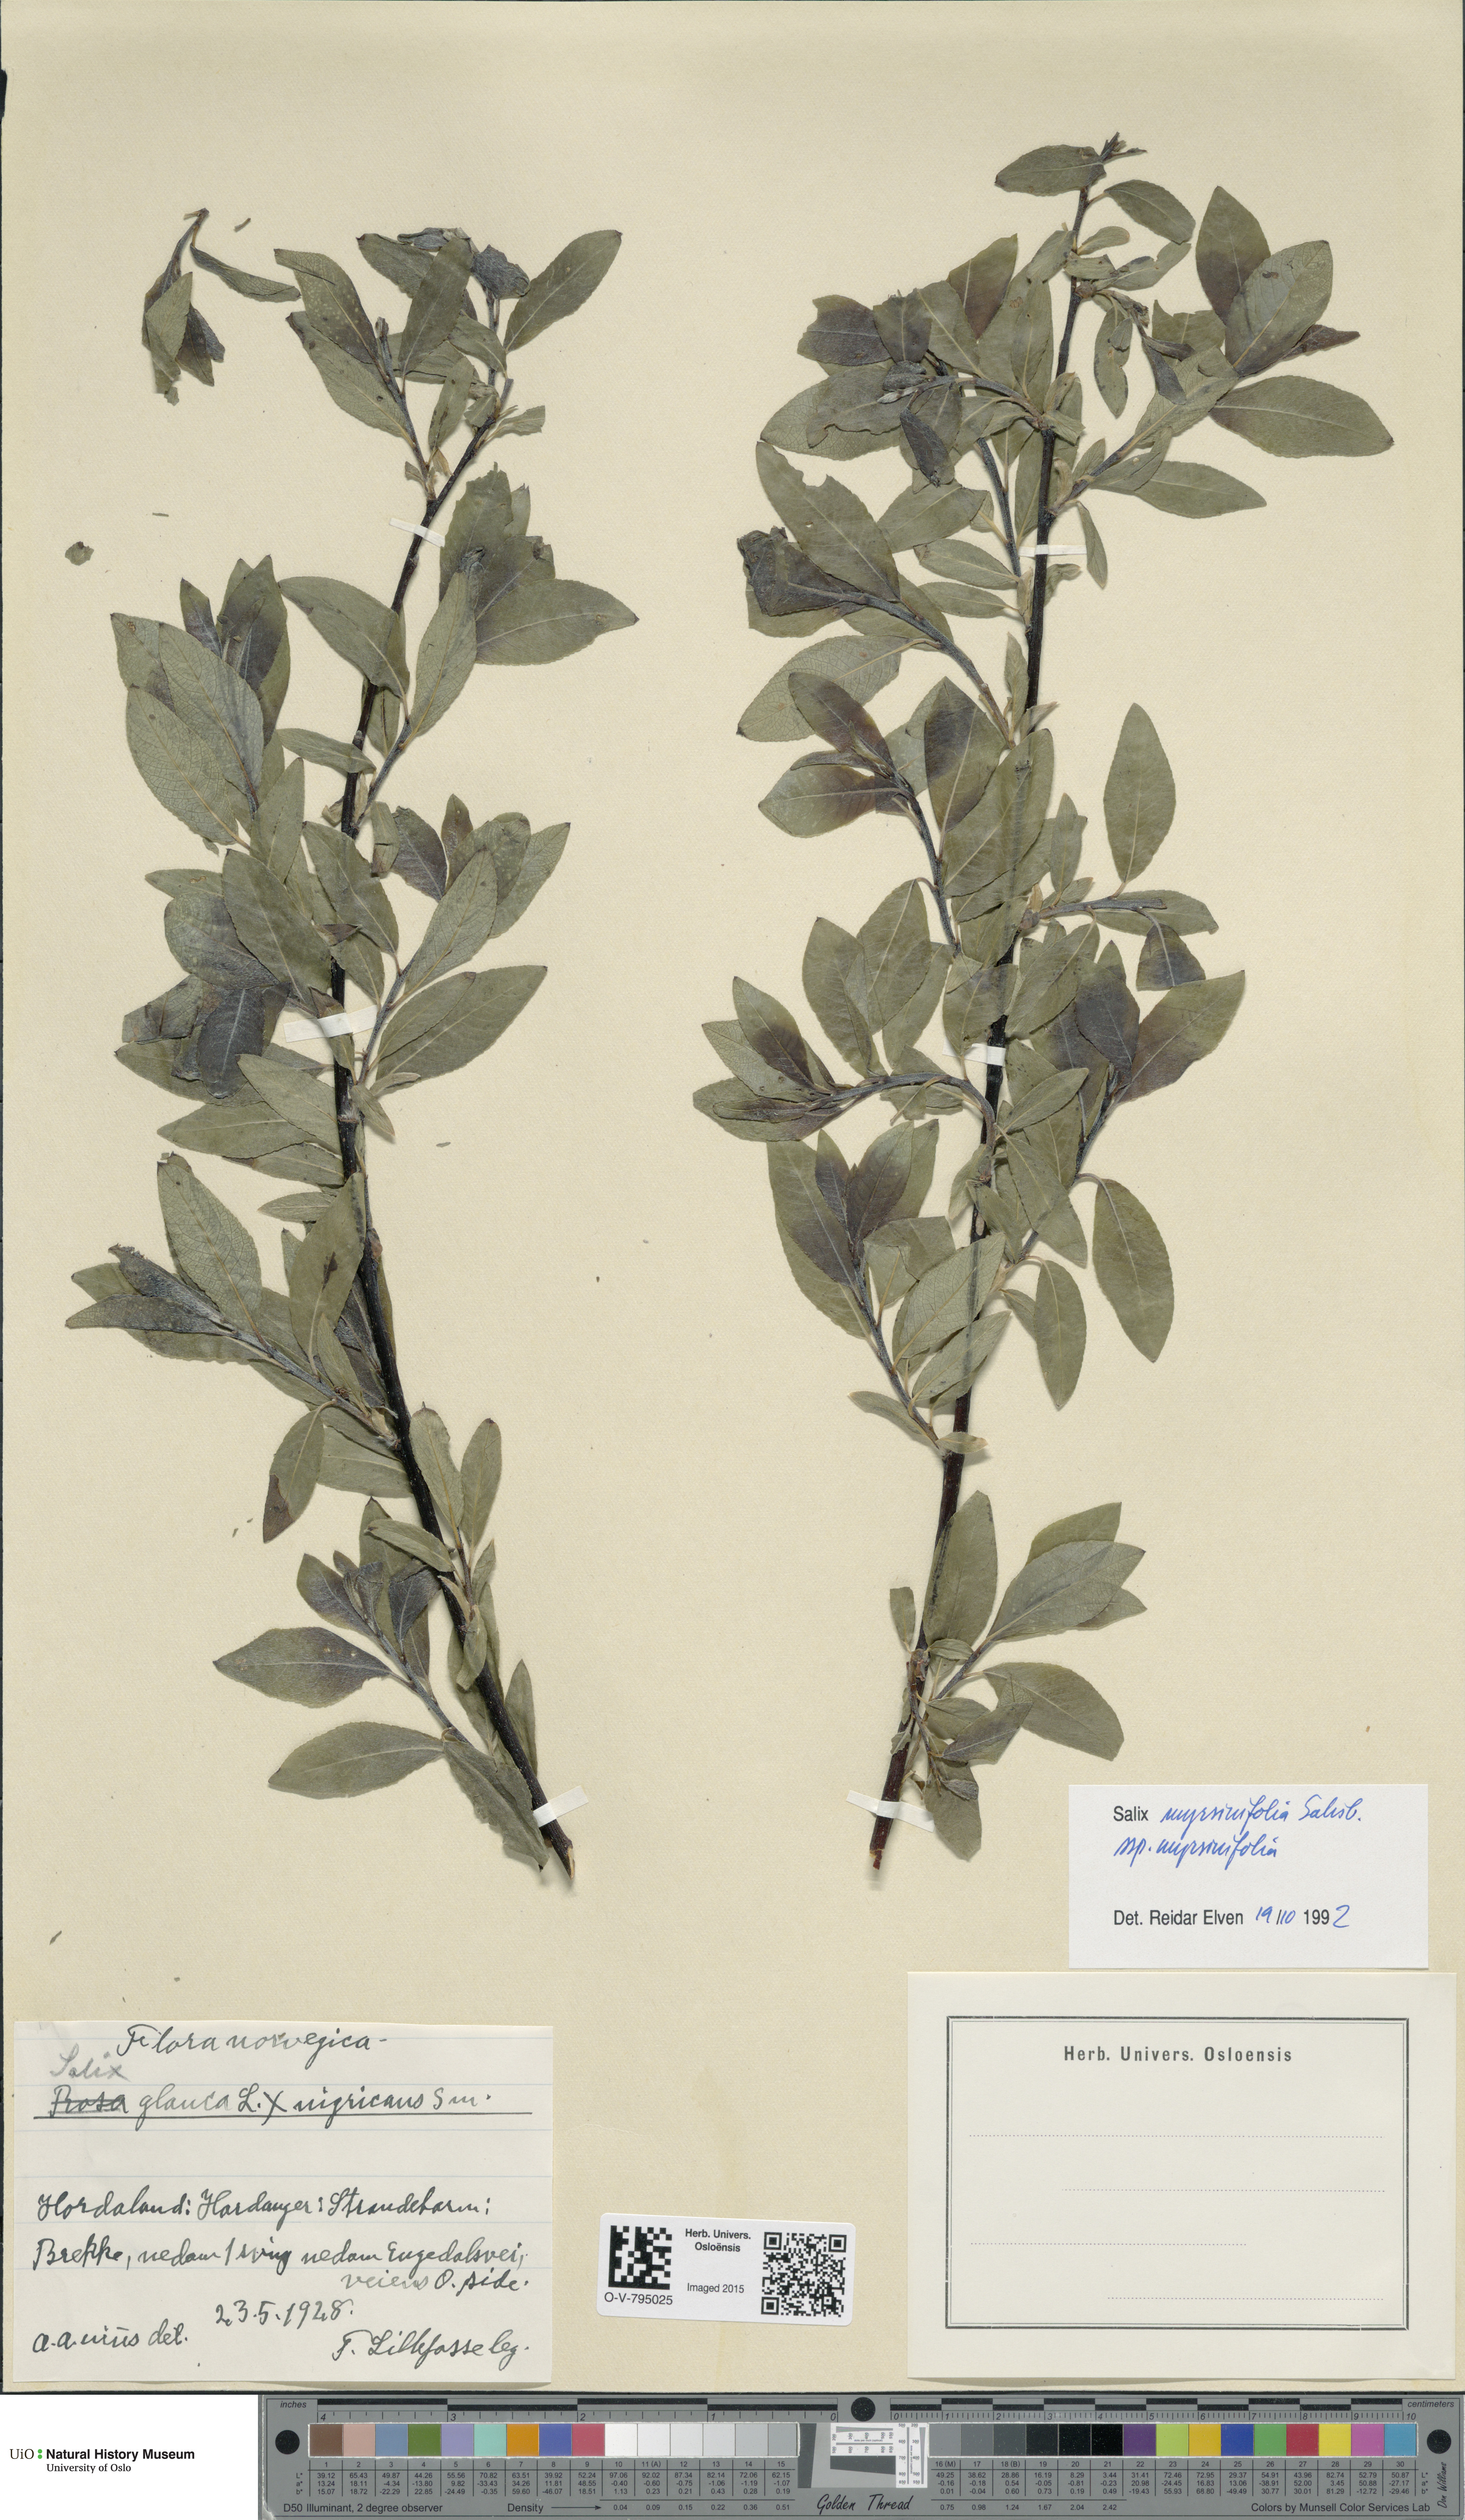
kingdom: Plantae
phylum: Tracheophyta
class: Magnoliopsida
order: Malpighiales
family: Salicaceae
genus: Salix
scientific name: Salix myrsinifolia
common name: Dark-leaved willow
